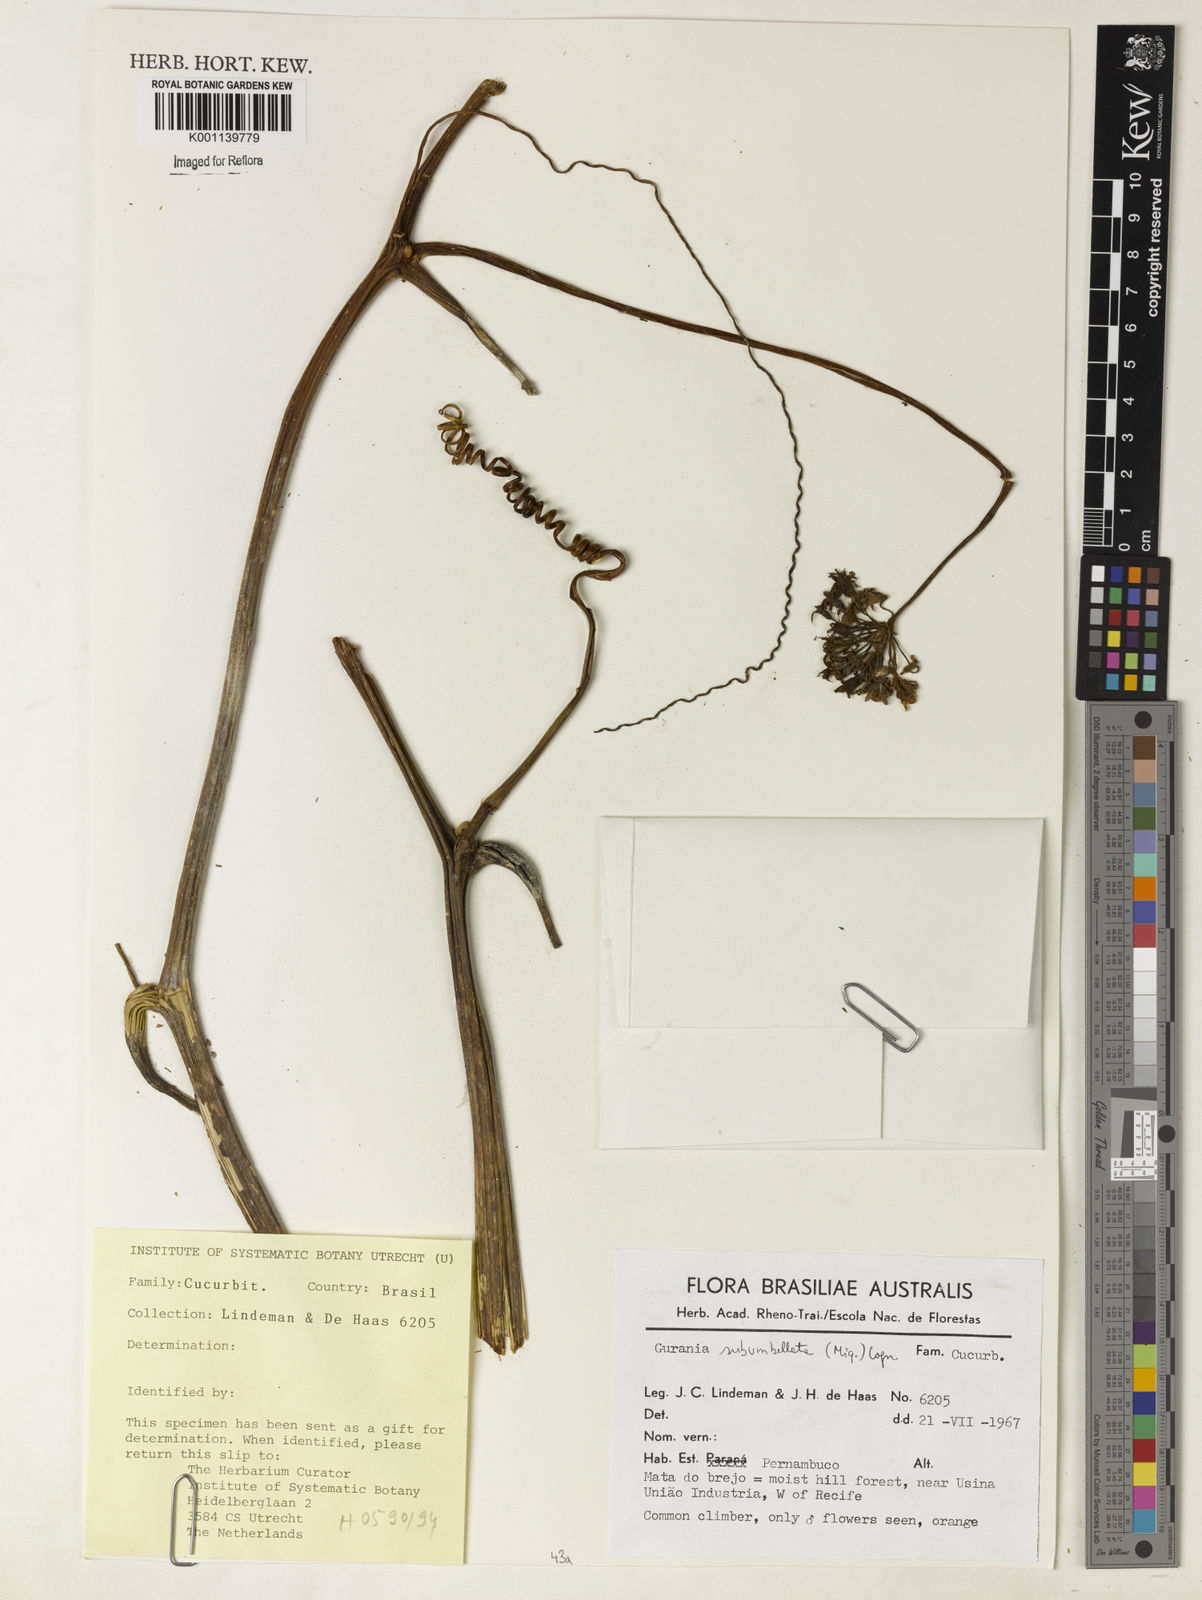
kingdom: Plantae
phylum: Tracheophyta
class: Magnoliopsida
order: Cucurbitales
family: Cucurbitaceae
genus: Gurania
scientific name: Gurania subumbellata
